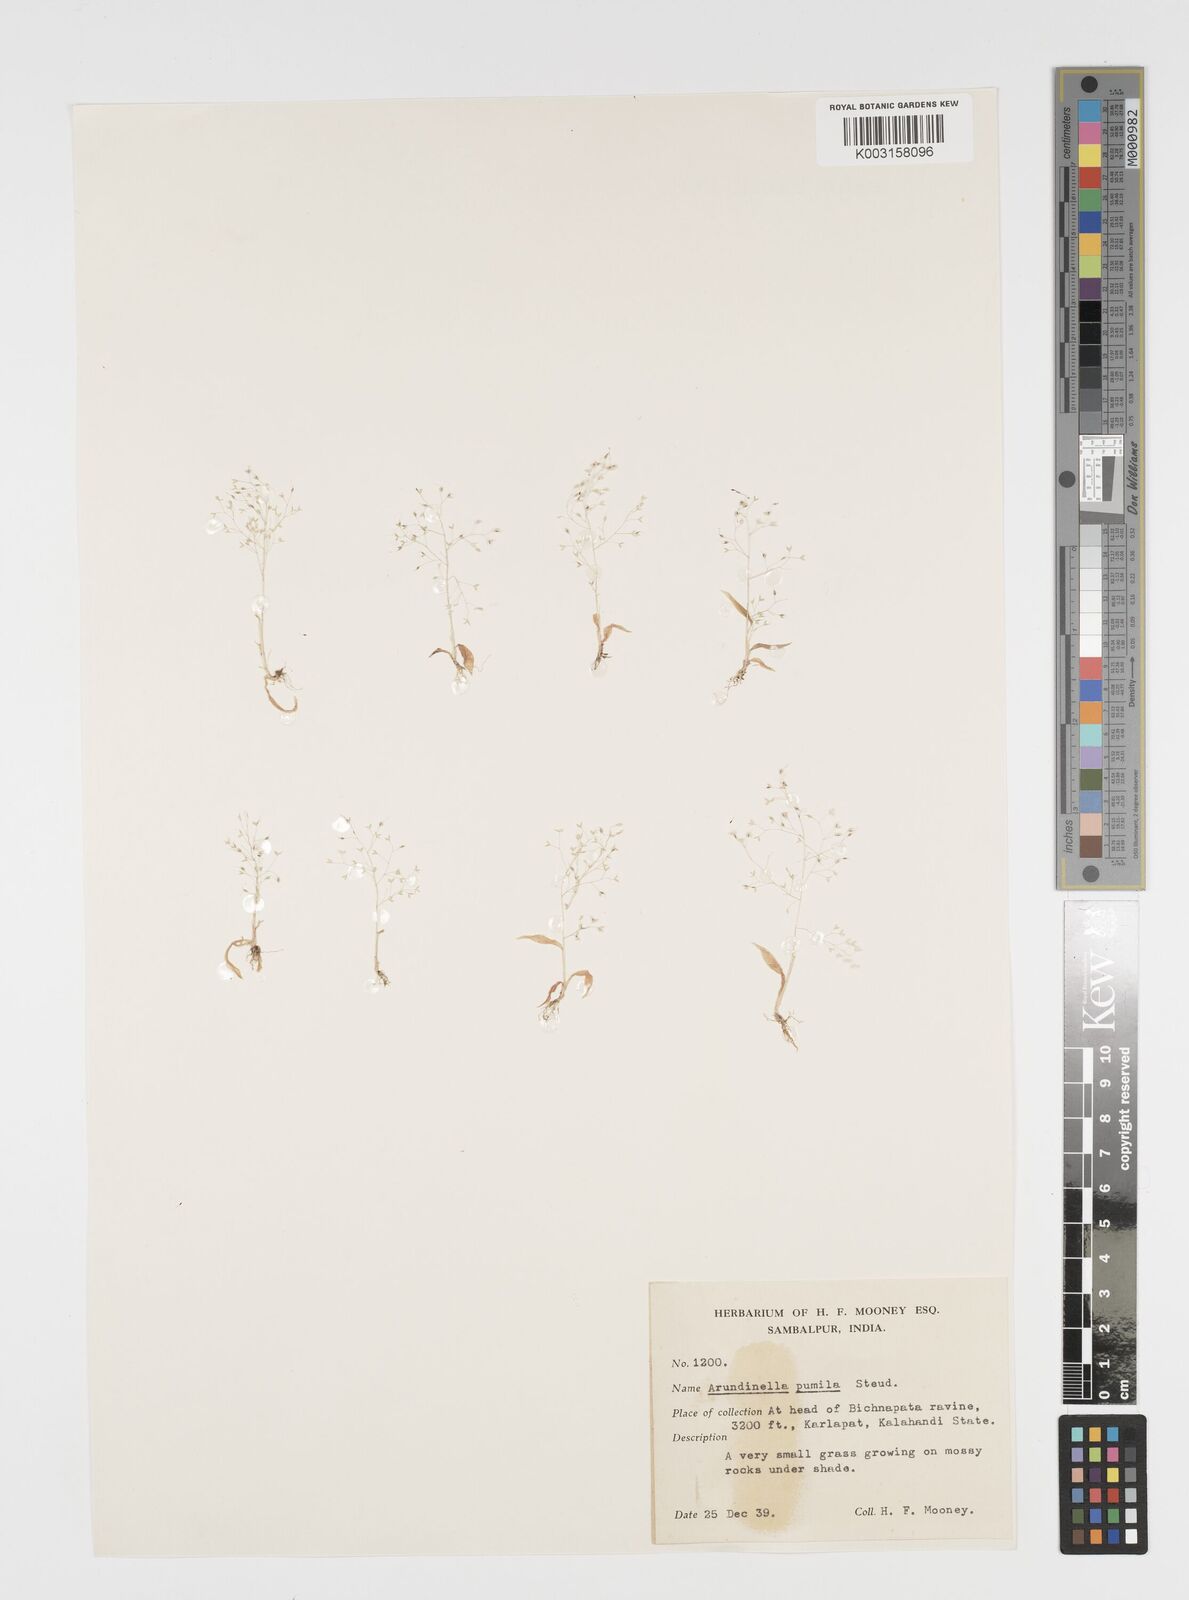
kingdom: Plantae
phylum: Tracheophyta
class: Liliopsida
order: Poales
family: Poaceae
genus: Arundinella
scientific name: Arundinella pumila
